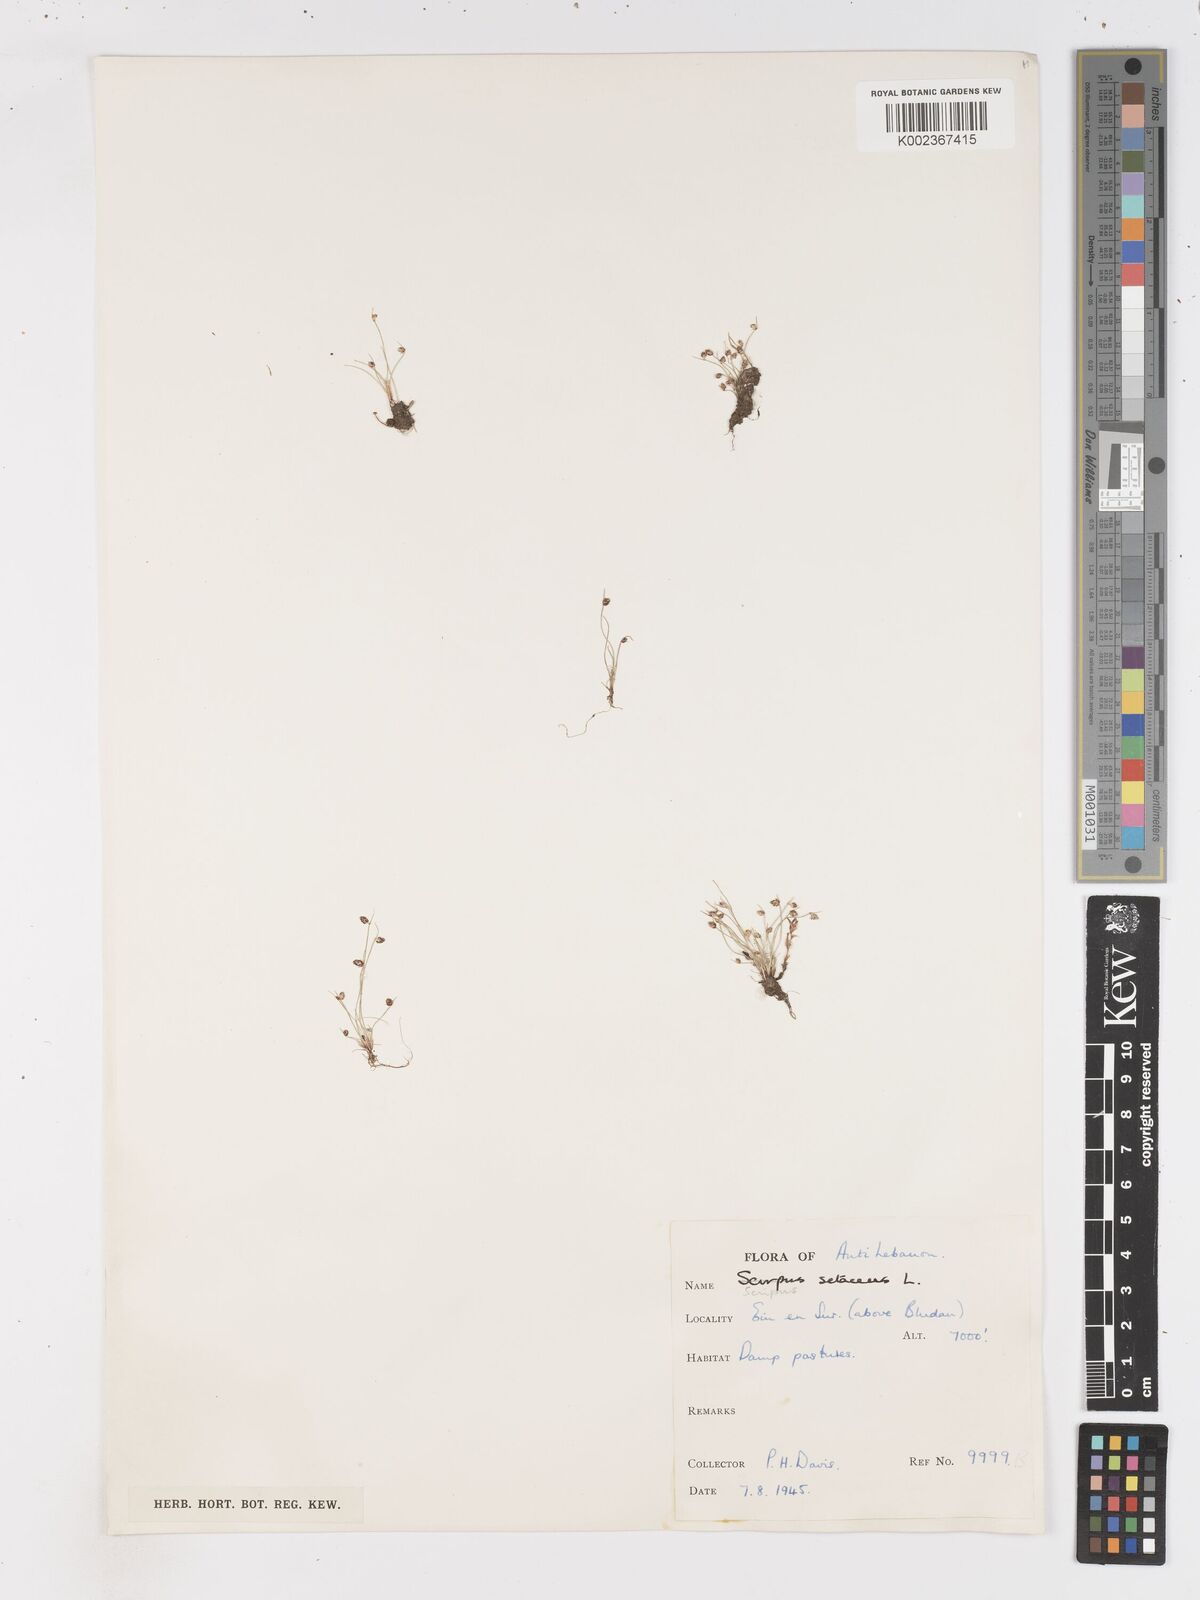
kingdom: Plantae
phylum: Tracheophyta
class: Liliopsida
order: Poales
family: Cyperaceae
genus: Isolepis
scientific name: Isolepis setacea
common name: Bristle club-rush
